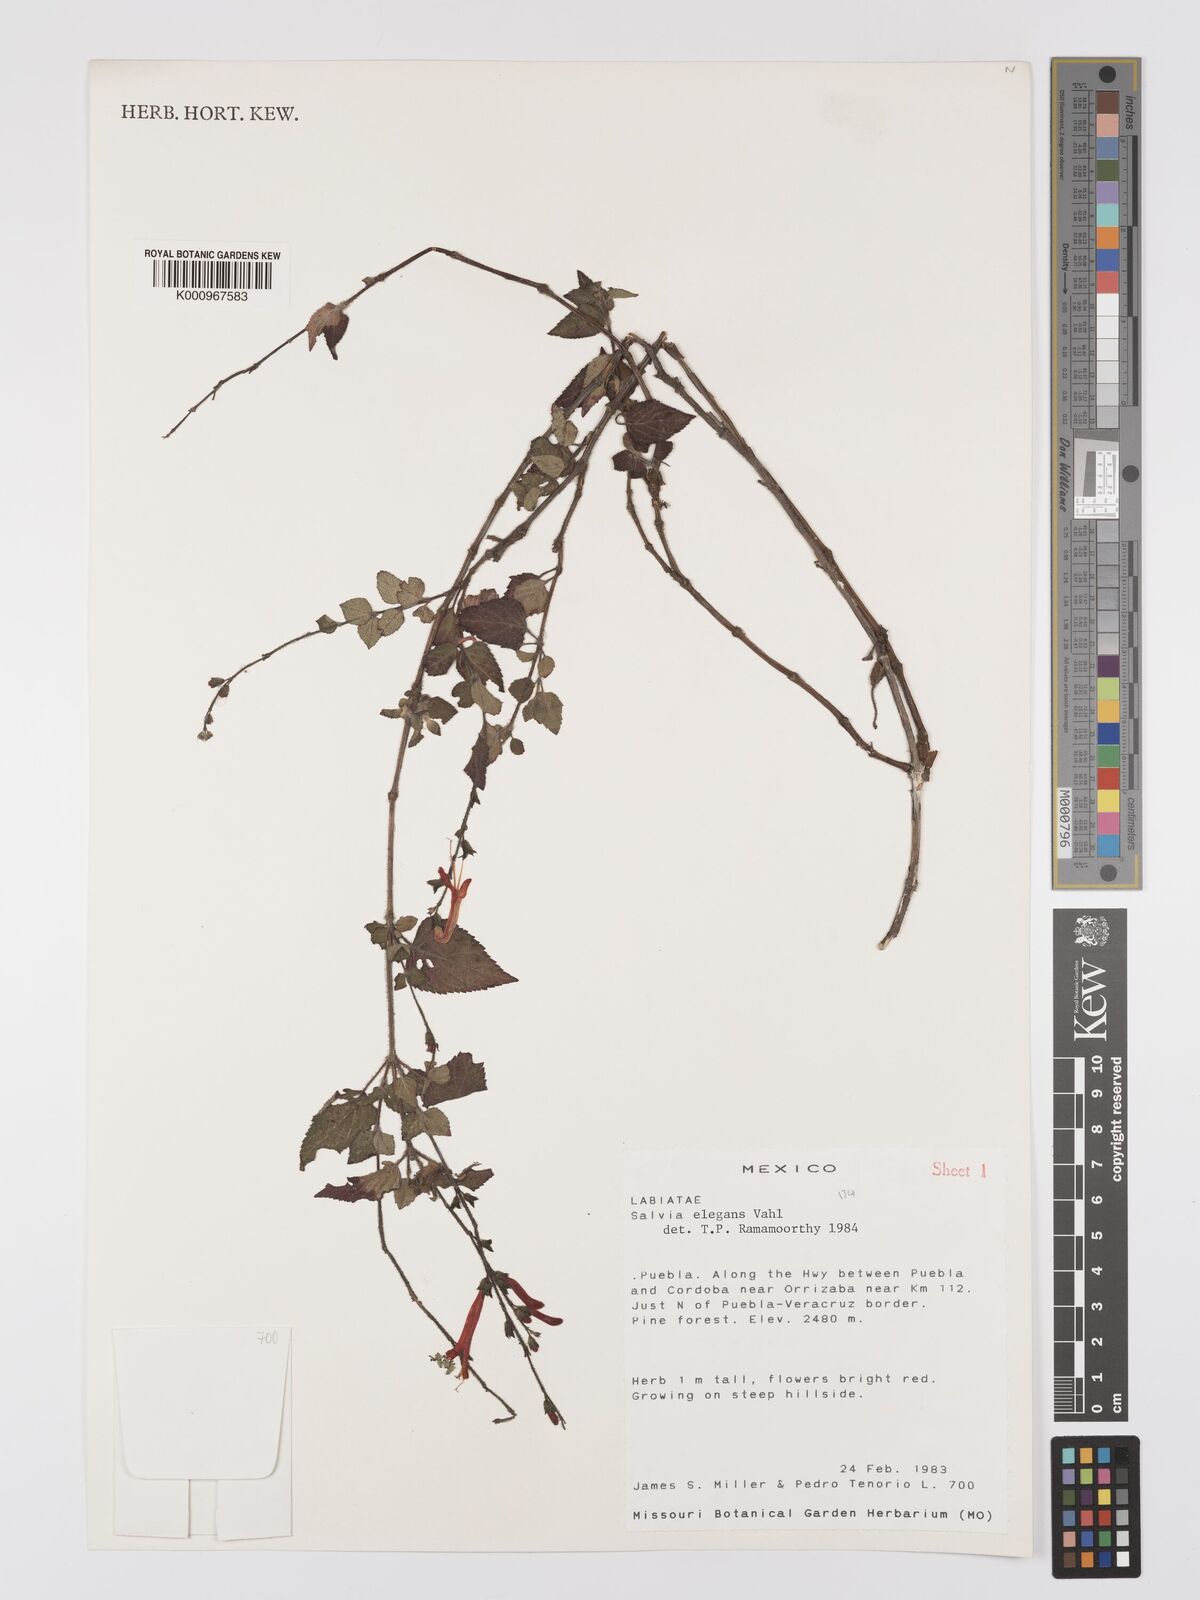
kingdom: Plantae
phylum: Tracheophyta
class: Magnoliopsida
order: Lamiales
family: Lamiaceae
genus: Salvia
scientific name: Salvia elegans
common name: Pineapple sage
